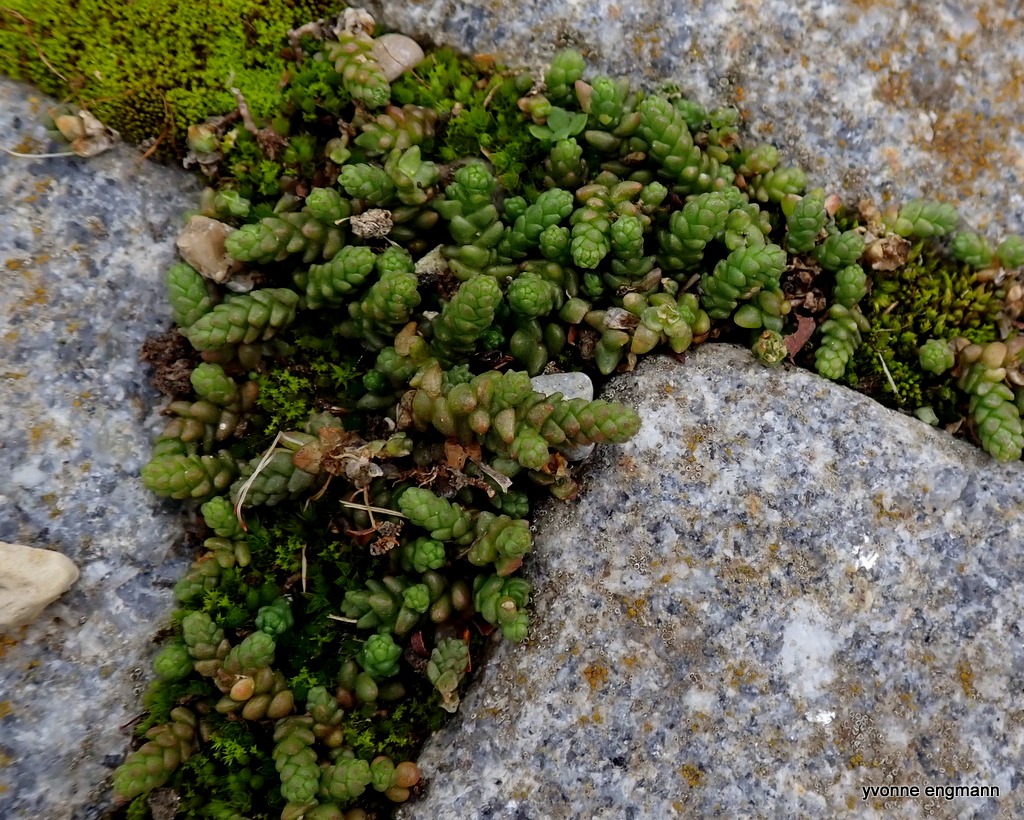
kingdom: Plantae
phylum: Tracheophyta
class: Magnoliopsida
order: Saxifragales
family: Crassulaceae
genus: Sedum
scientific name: Sedum acre
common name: Bidende stenurt
